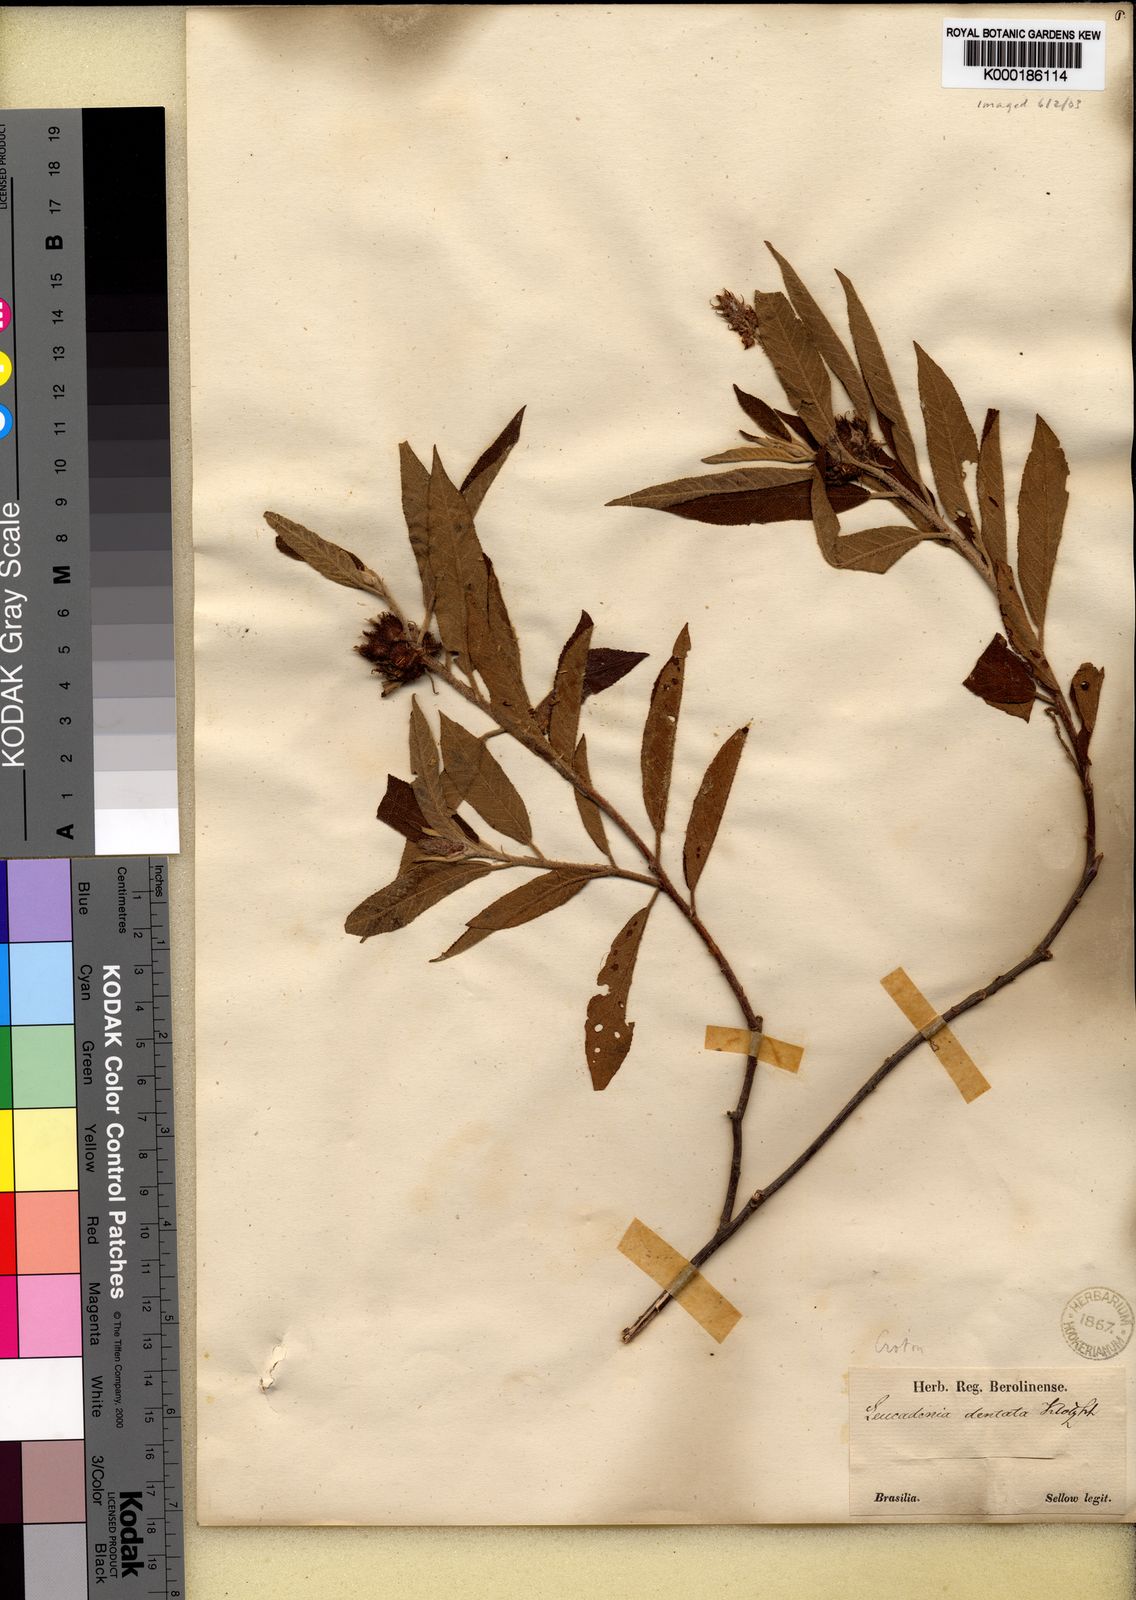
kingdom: Plantae
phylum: Tracheophyta
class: Magnoliopsida
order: Malpighiales
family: Euphorbiaceae
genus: Croton
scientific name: Croton
